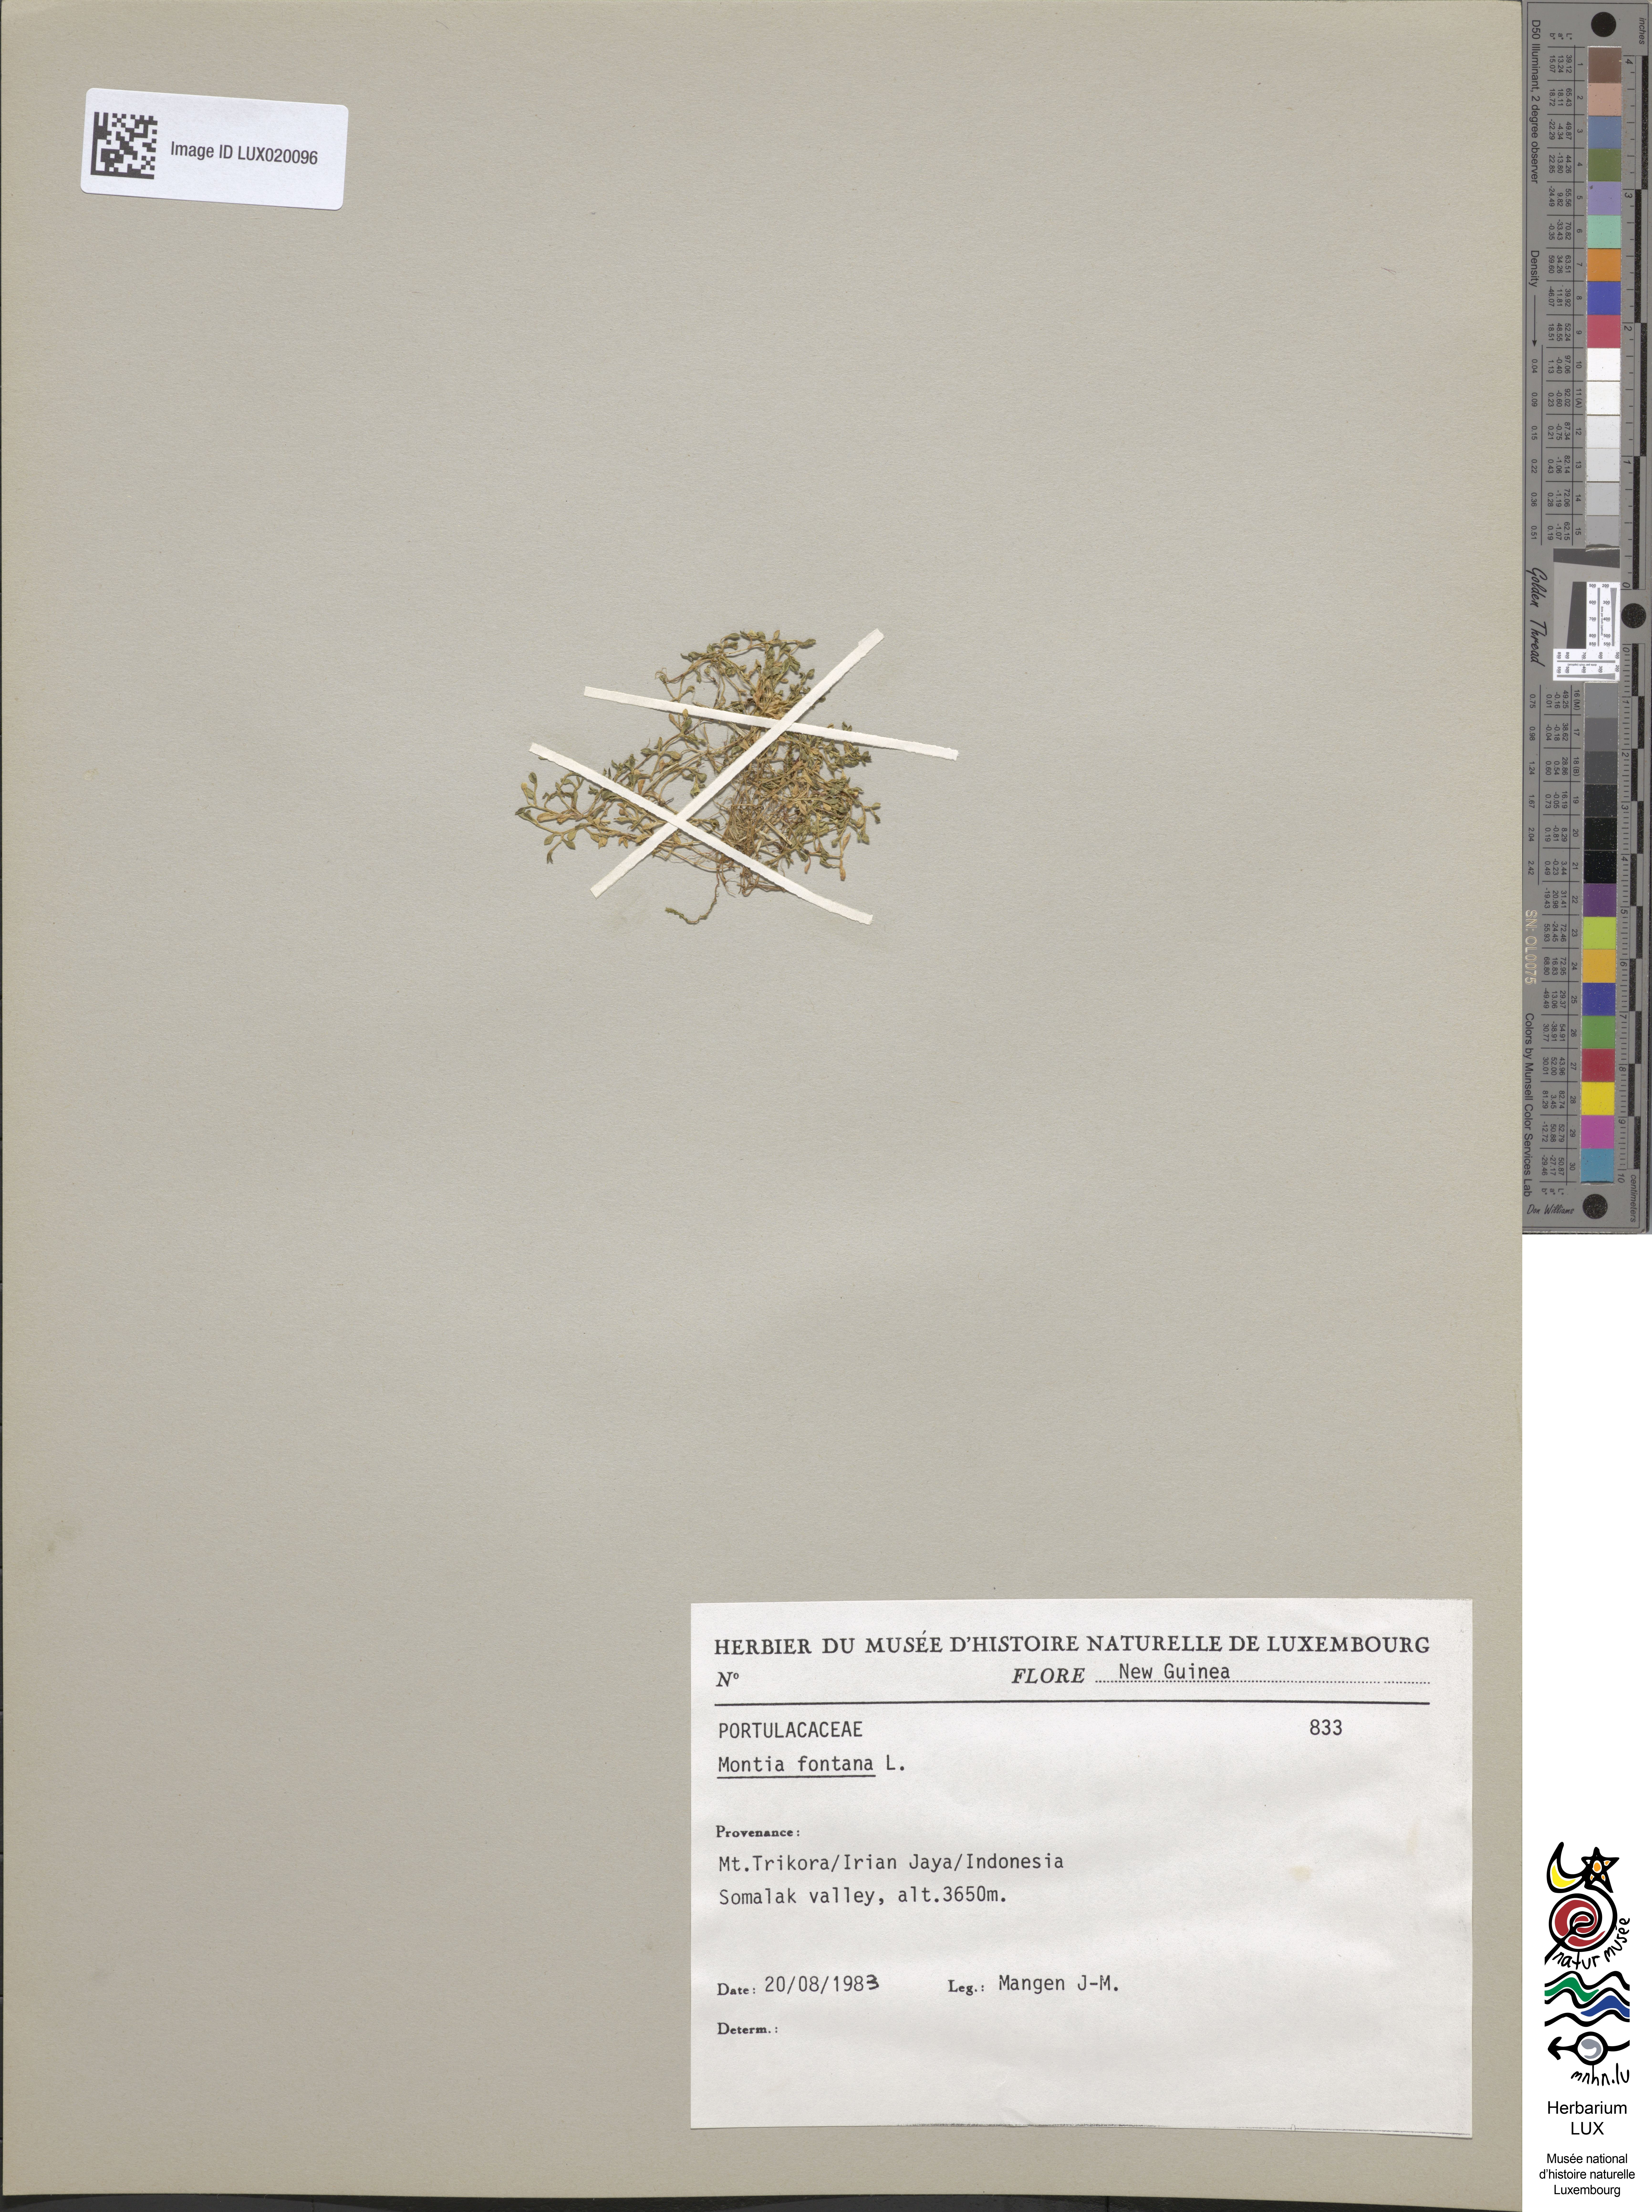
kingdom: Plantae
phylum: Tracheophyta
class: Magnoliopsida
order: Caryophyllales
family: Montiaceae
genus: Montia
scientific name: Montia fontana
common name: Blinks
